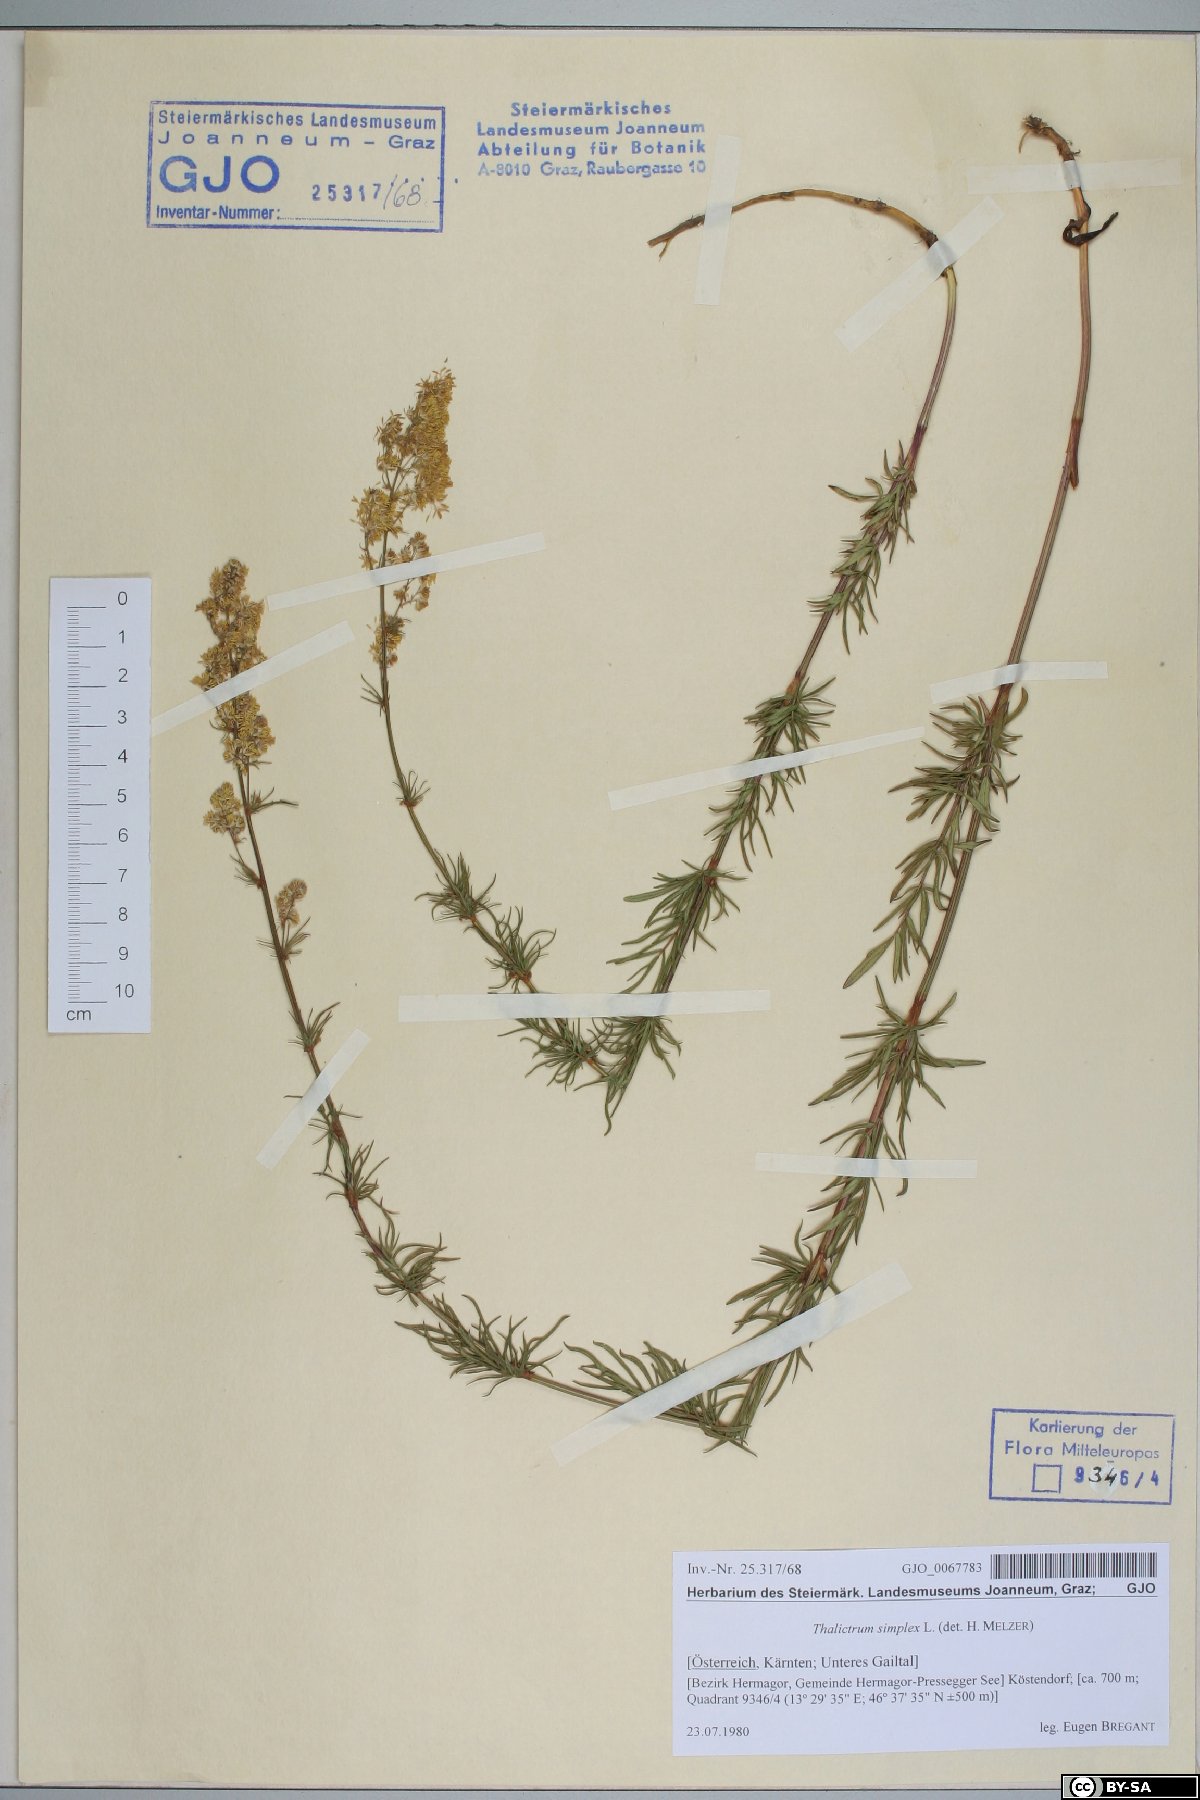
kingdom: Plantae
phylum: Tracheophyta
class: Magnoliopsida
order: Ranunculales
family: Ranunculaceae
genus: Thalictrum
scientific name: Thalictrum simplex
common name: Small meadow-rue
